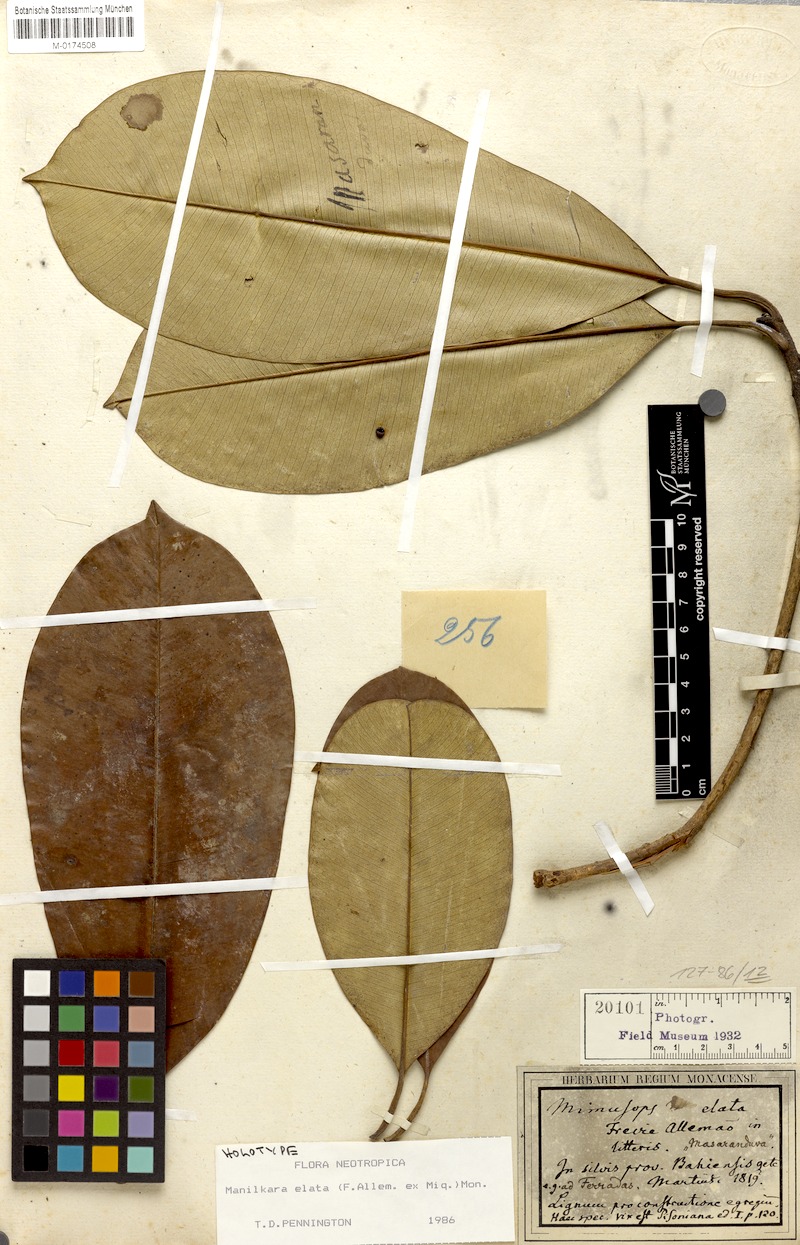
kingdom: Plantae
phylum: Tracheophyta
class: Magnoliopsida
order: Ericales
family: Sapotaceae
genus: Manilkara
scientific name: Manilkara elata
